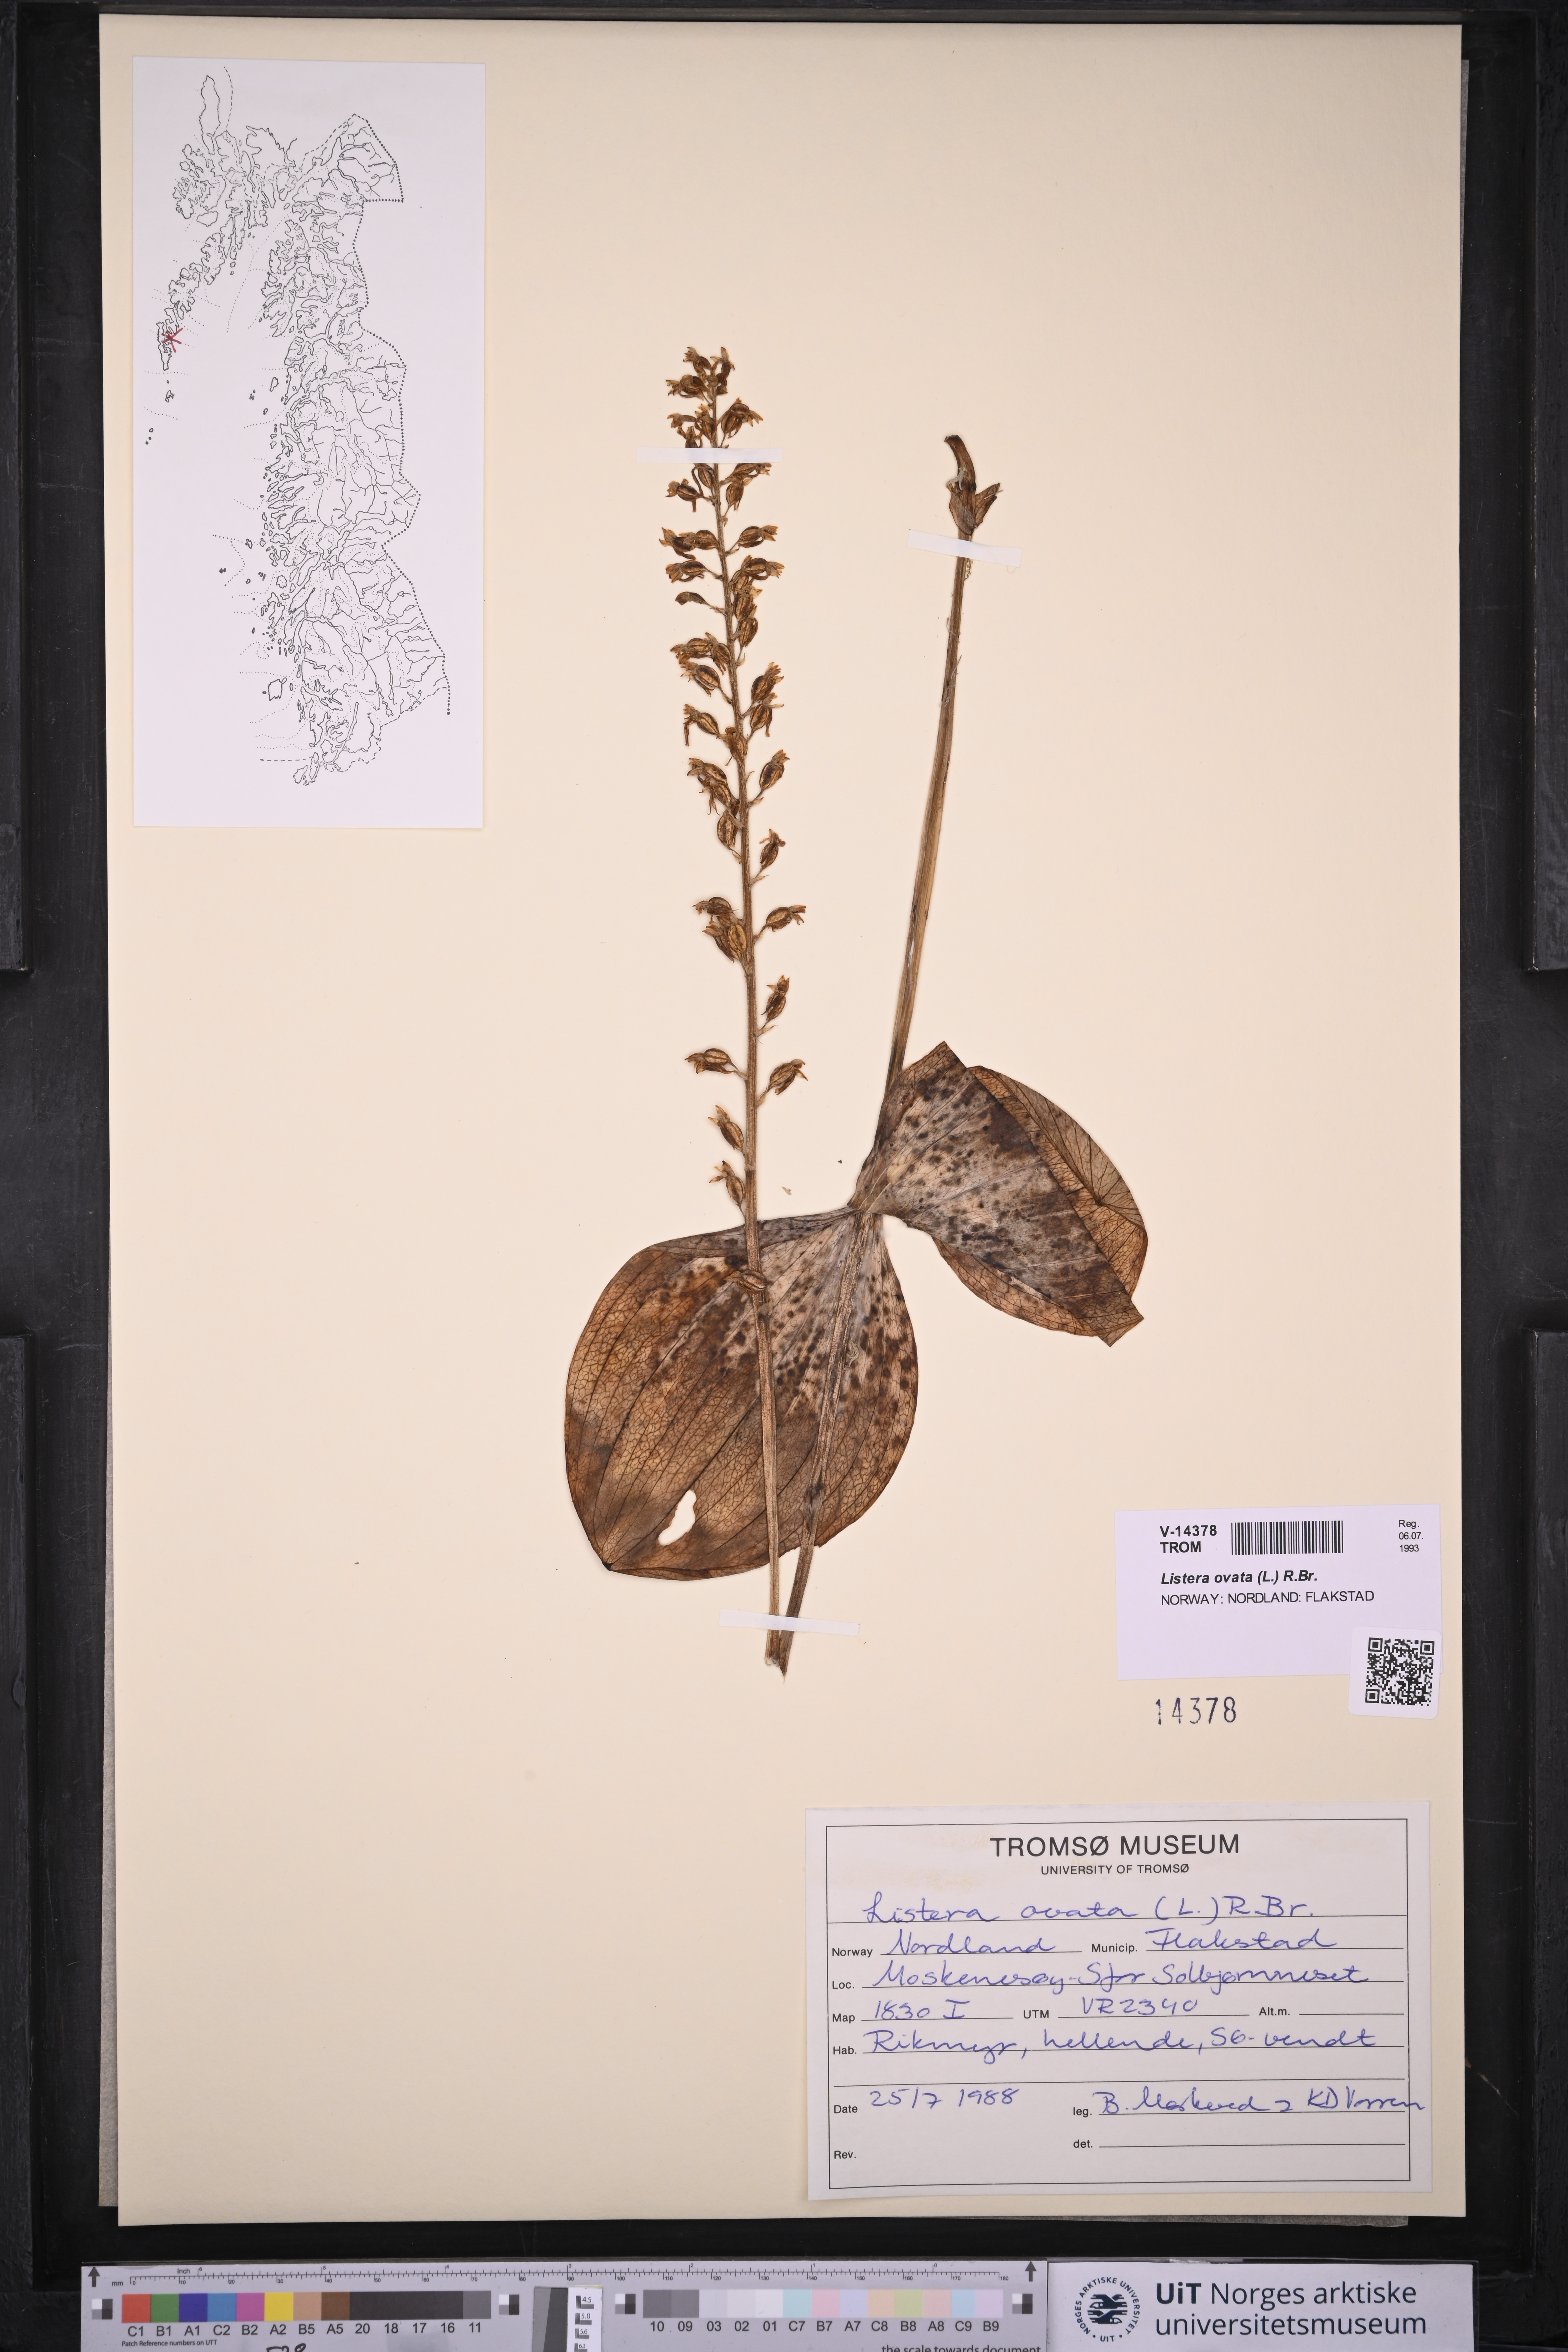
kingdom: Plantae
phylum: Tracheophyta
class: Liliopsida
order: Asparagales
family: Orchidaceae
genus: Neottia
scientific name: Neottia ovata
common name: Common twayblade
